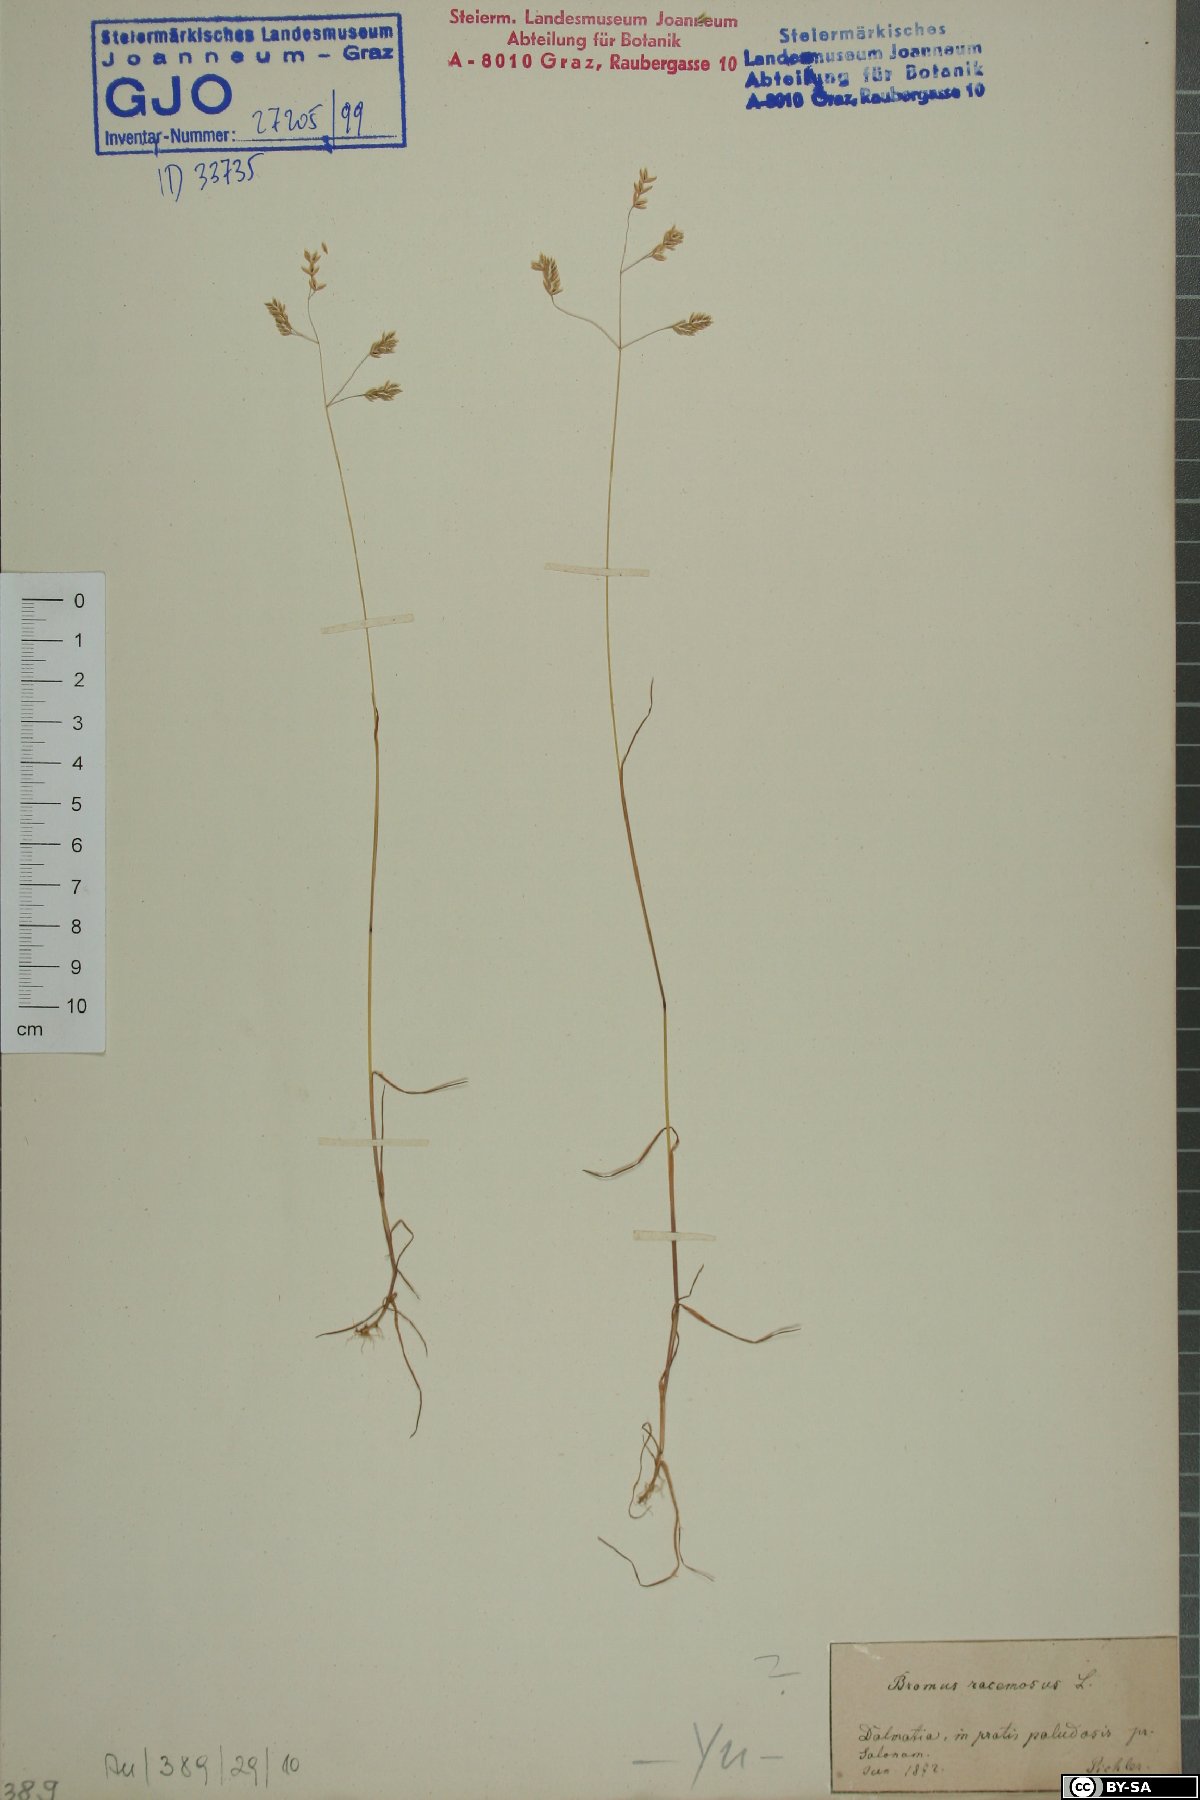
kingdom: Plantae
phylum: Tracheophyta
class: Liliopsida
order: Poales
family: Poaceae
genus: Bromus
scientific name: Bromus racemosus
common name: Bald brome
